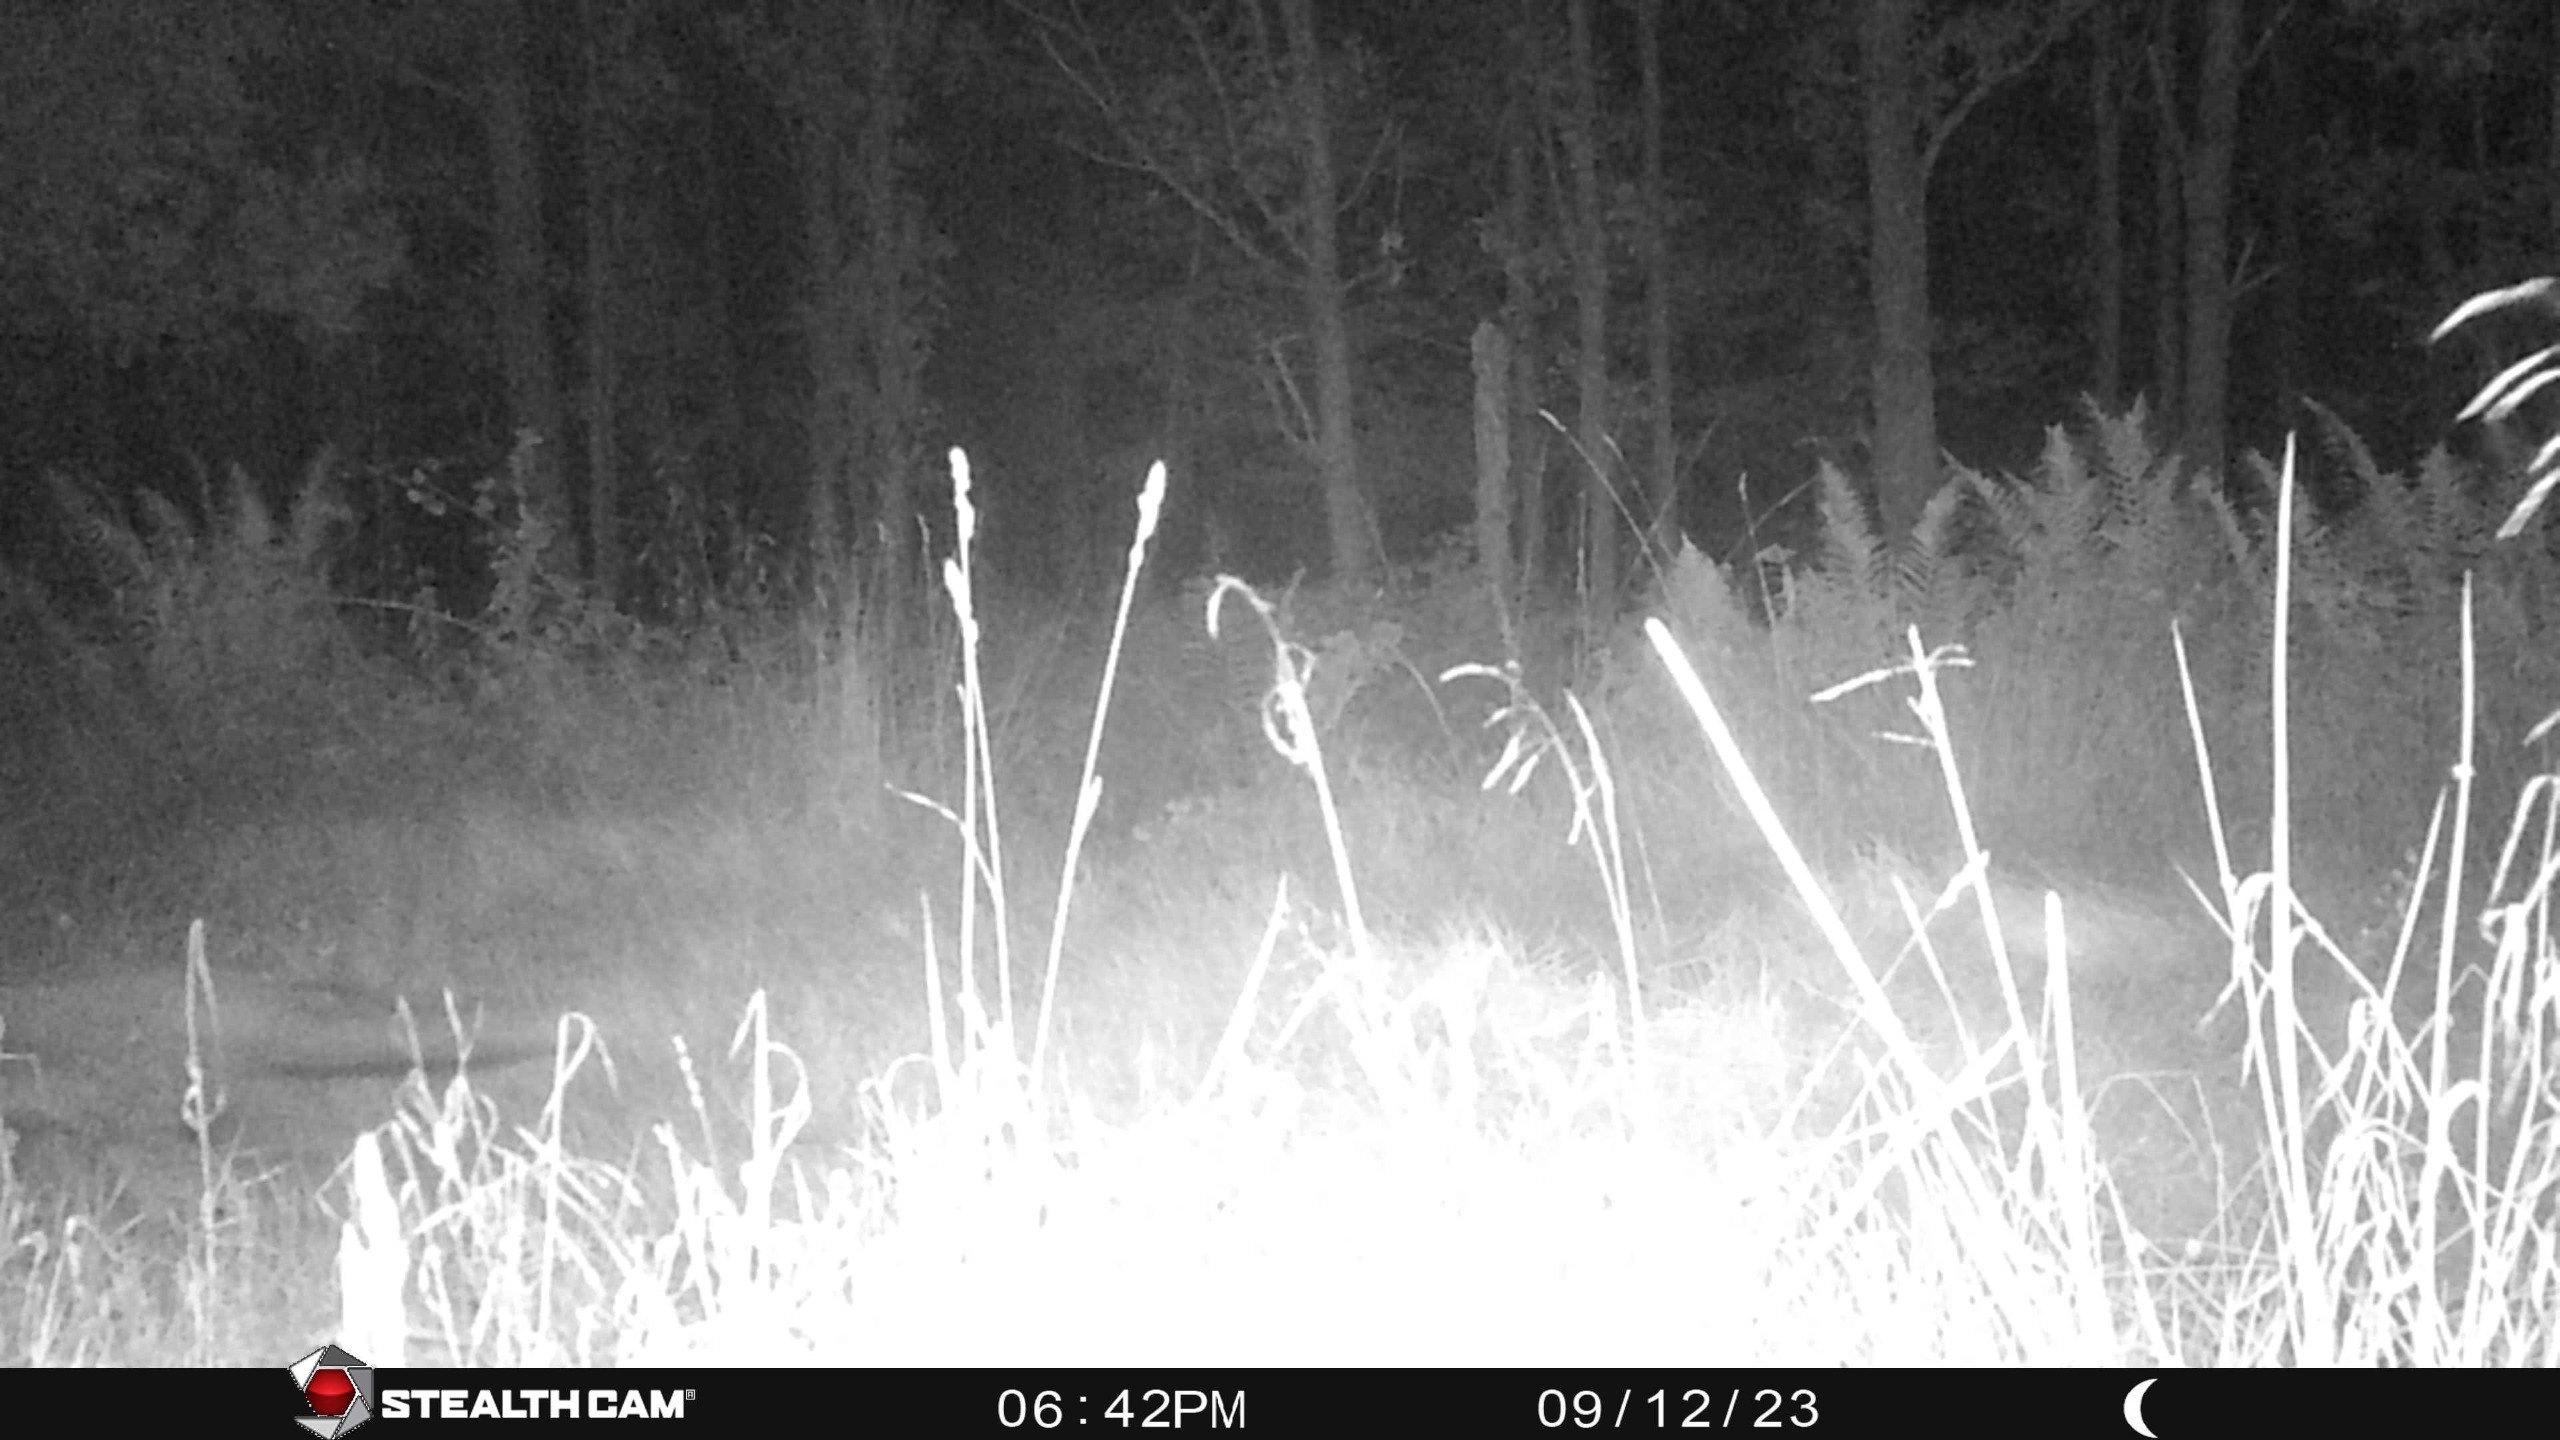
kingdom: Animalia
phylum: Chordata
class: Mammalia
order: Carnivora
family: Canidae
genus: Vulpes
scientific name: Vulpes vulpes
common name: Ræv
